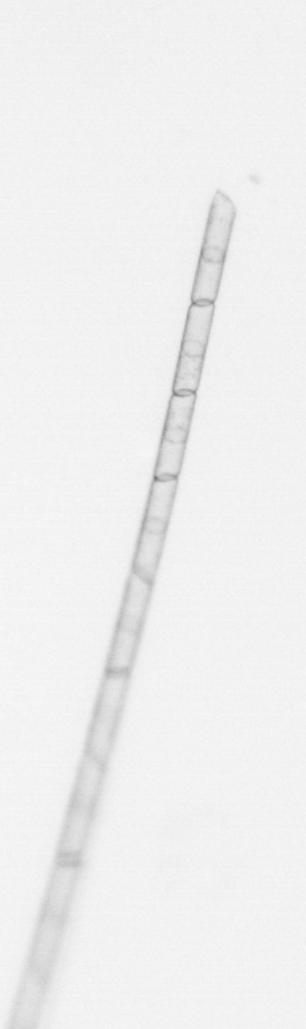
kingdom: Chromista
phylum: Ochrophyta
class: Bacillariophyceae
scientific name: Bacillariophyceae
